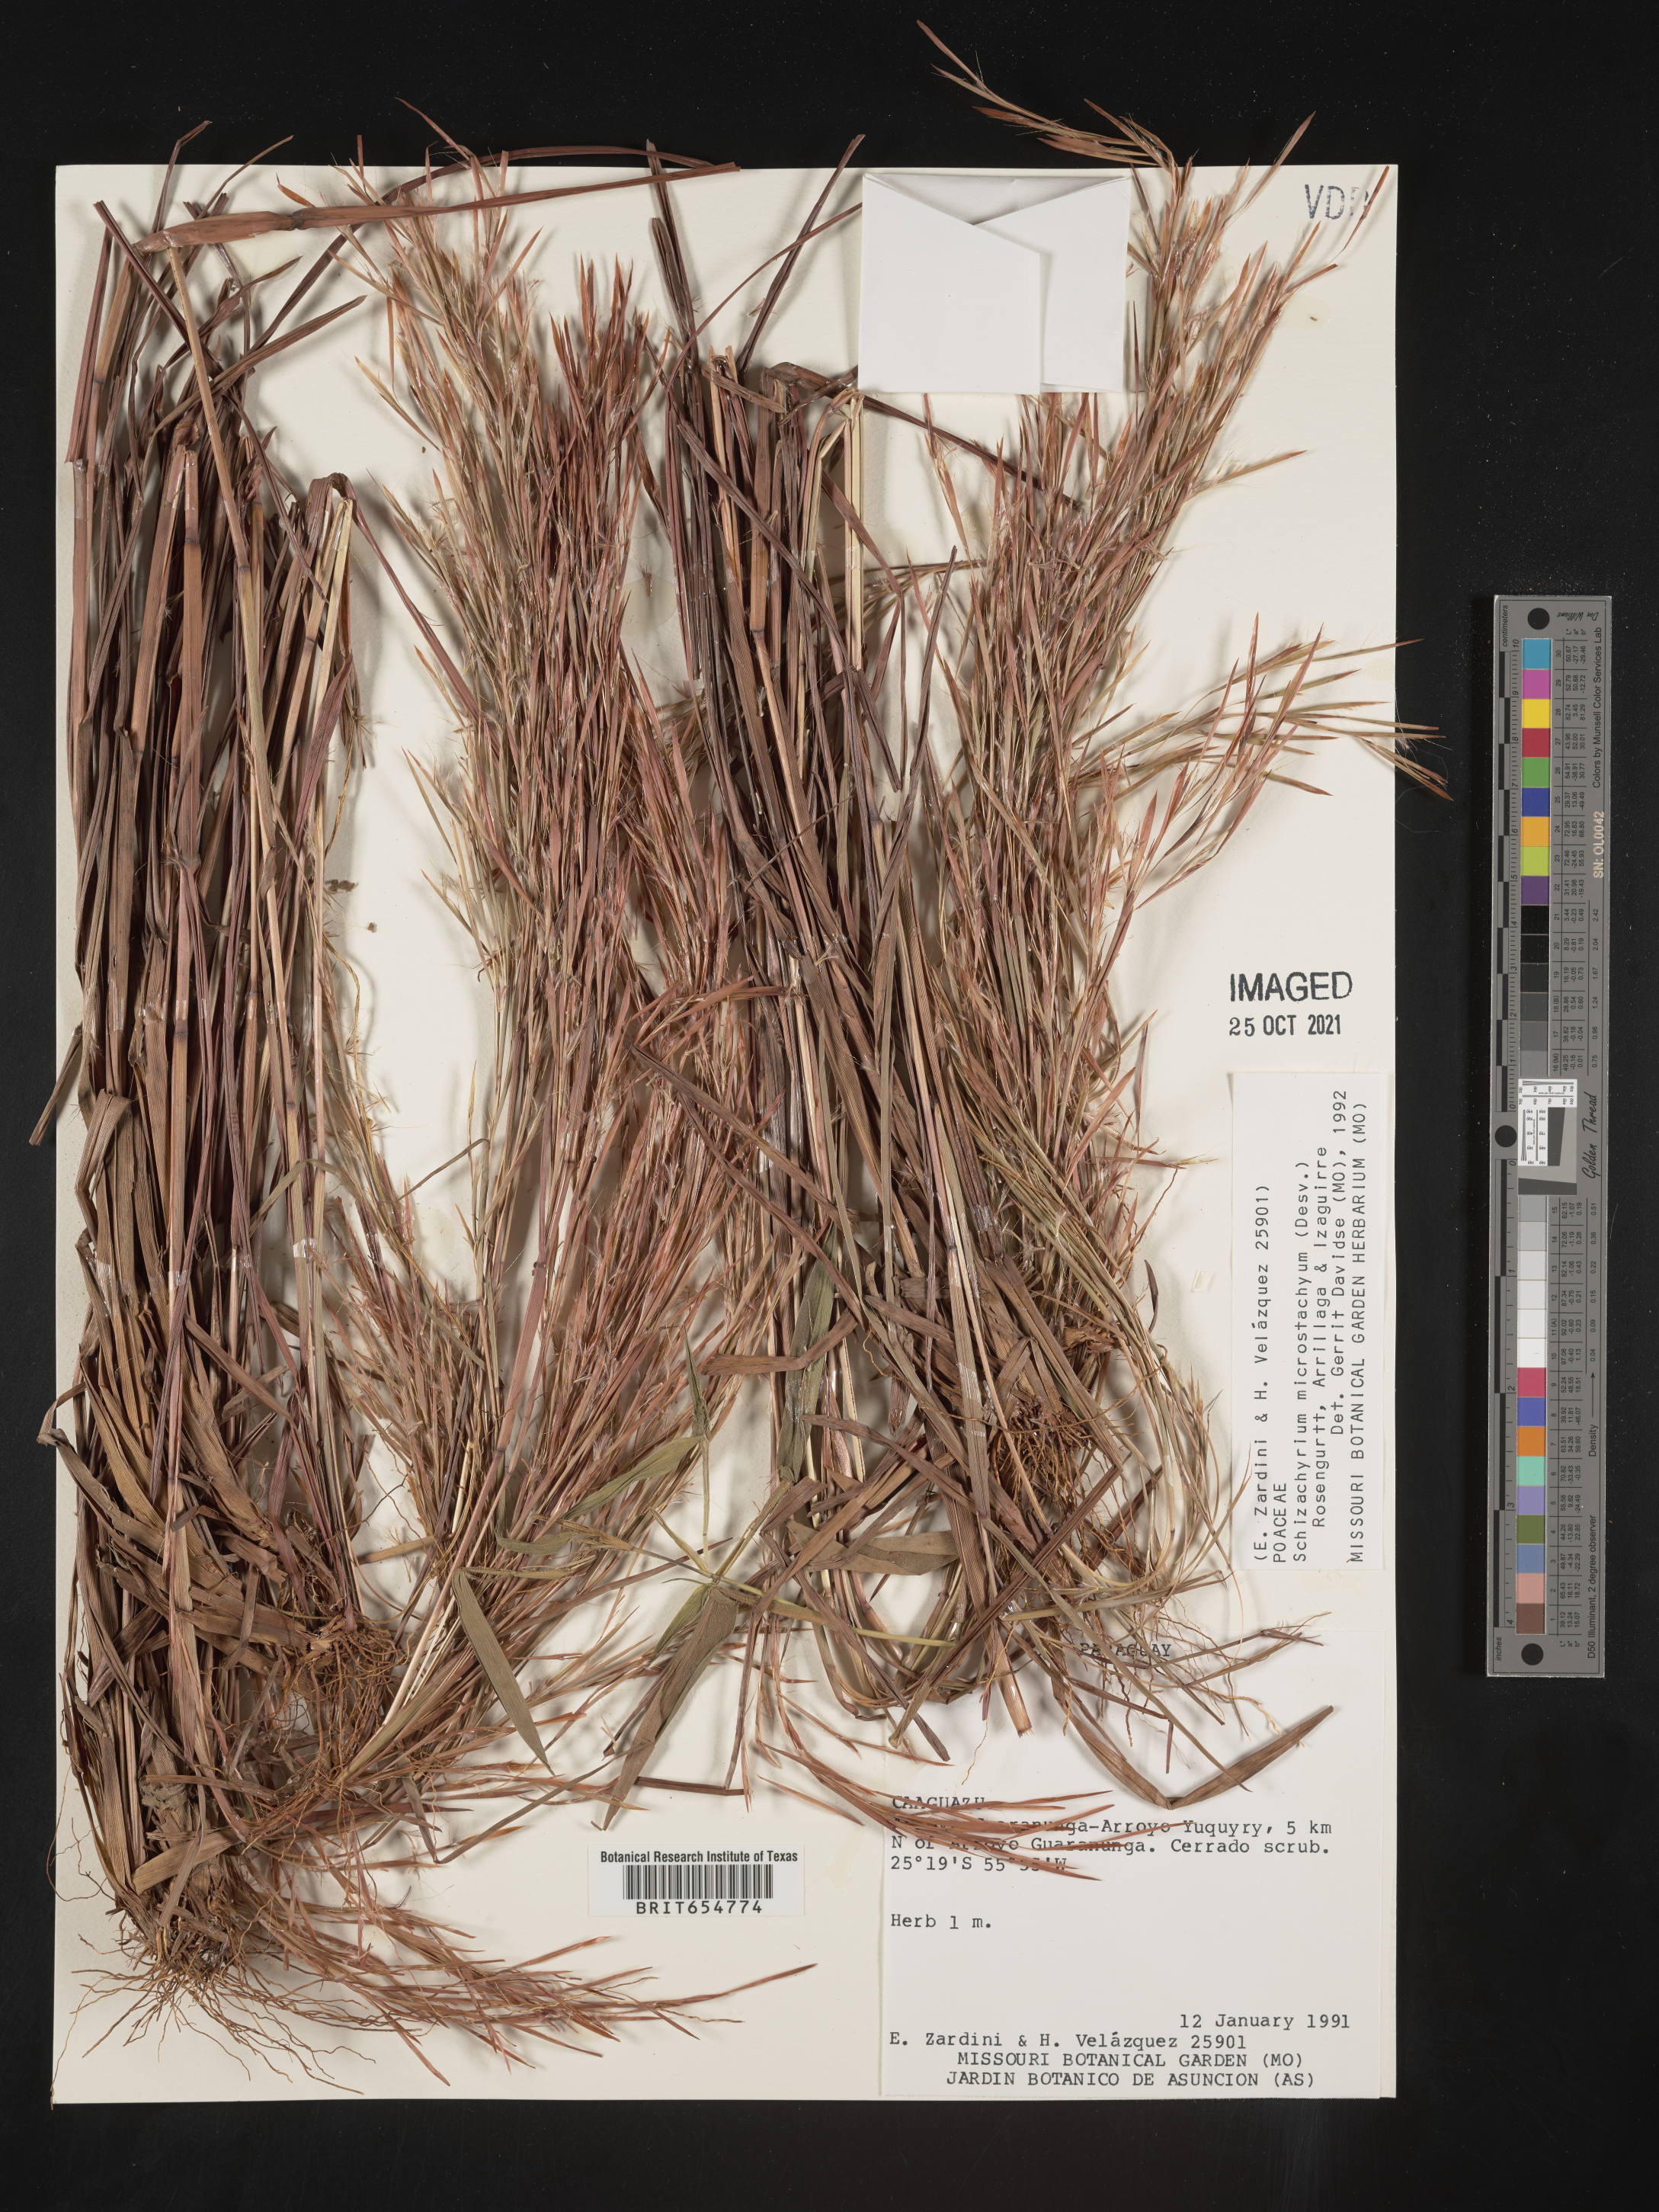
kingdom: Plantae
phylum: Tracheophyta
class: Liliopsida
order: Poales
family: Poaceae
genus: Andropogon
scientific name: Andropogon
